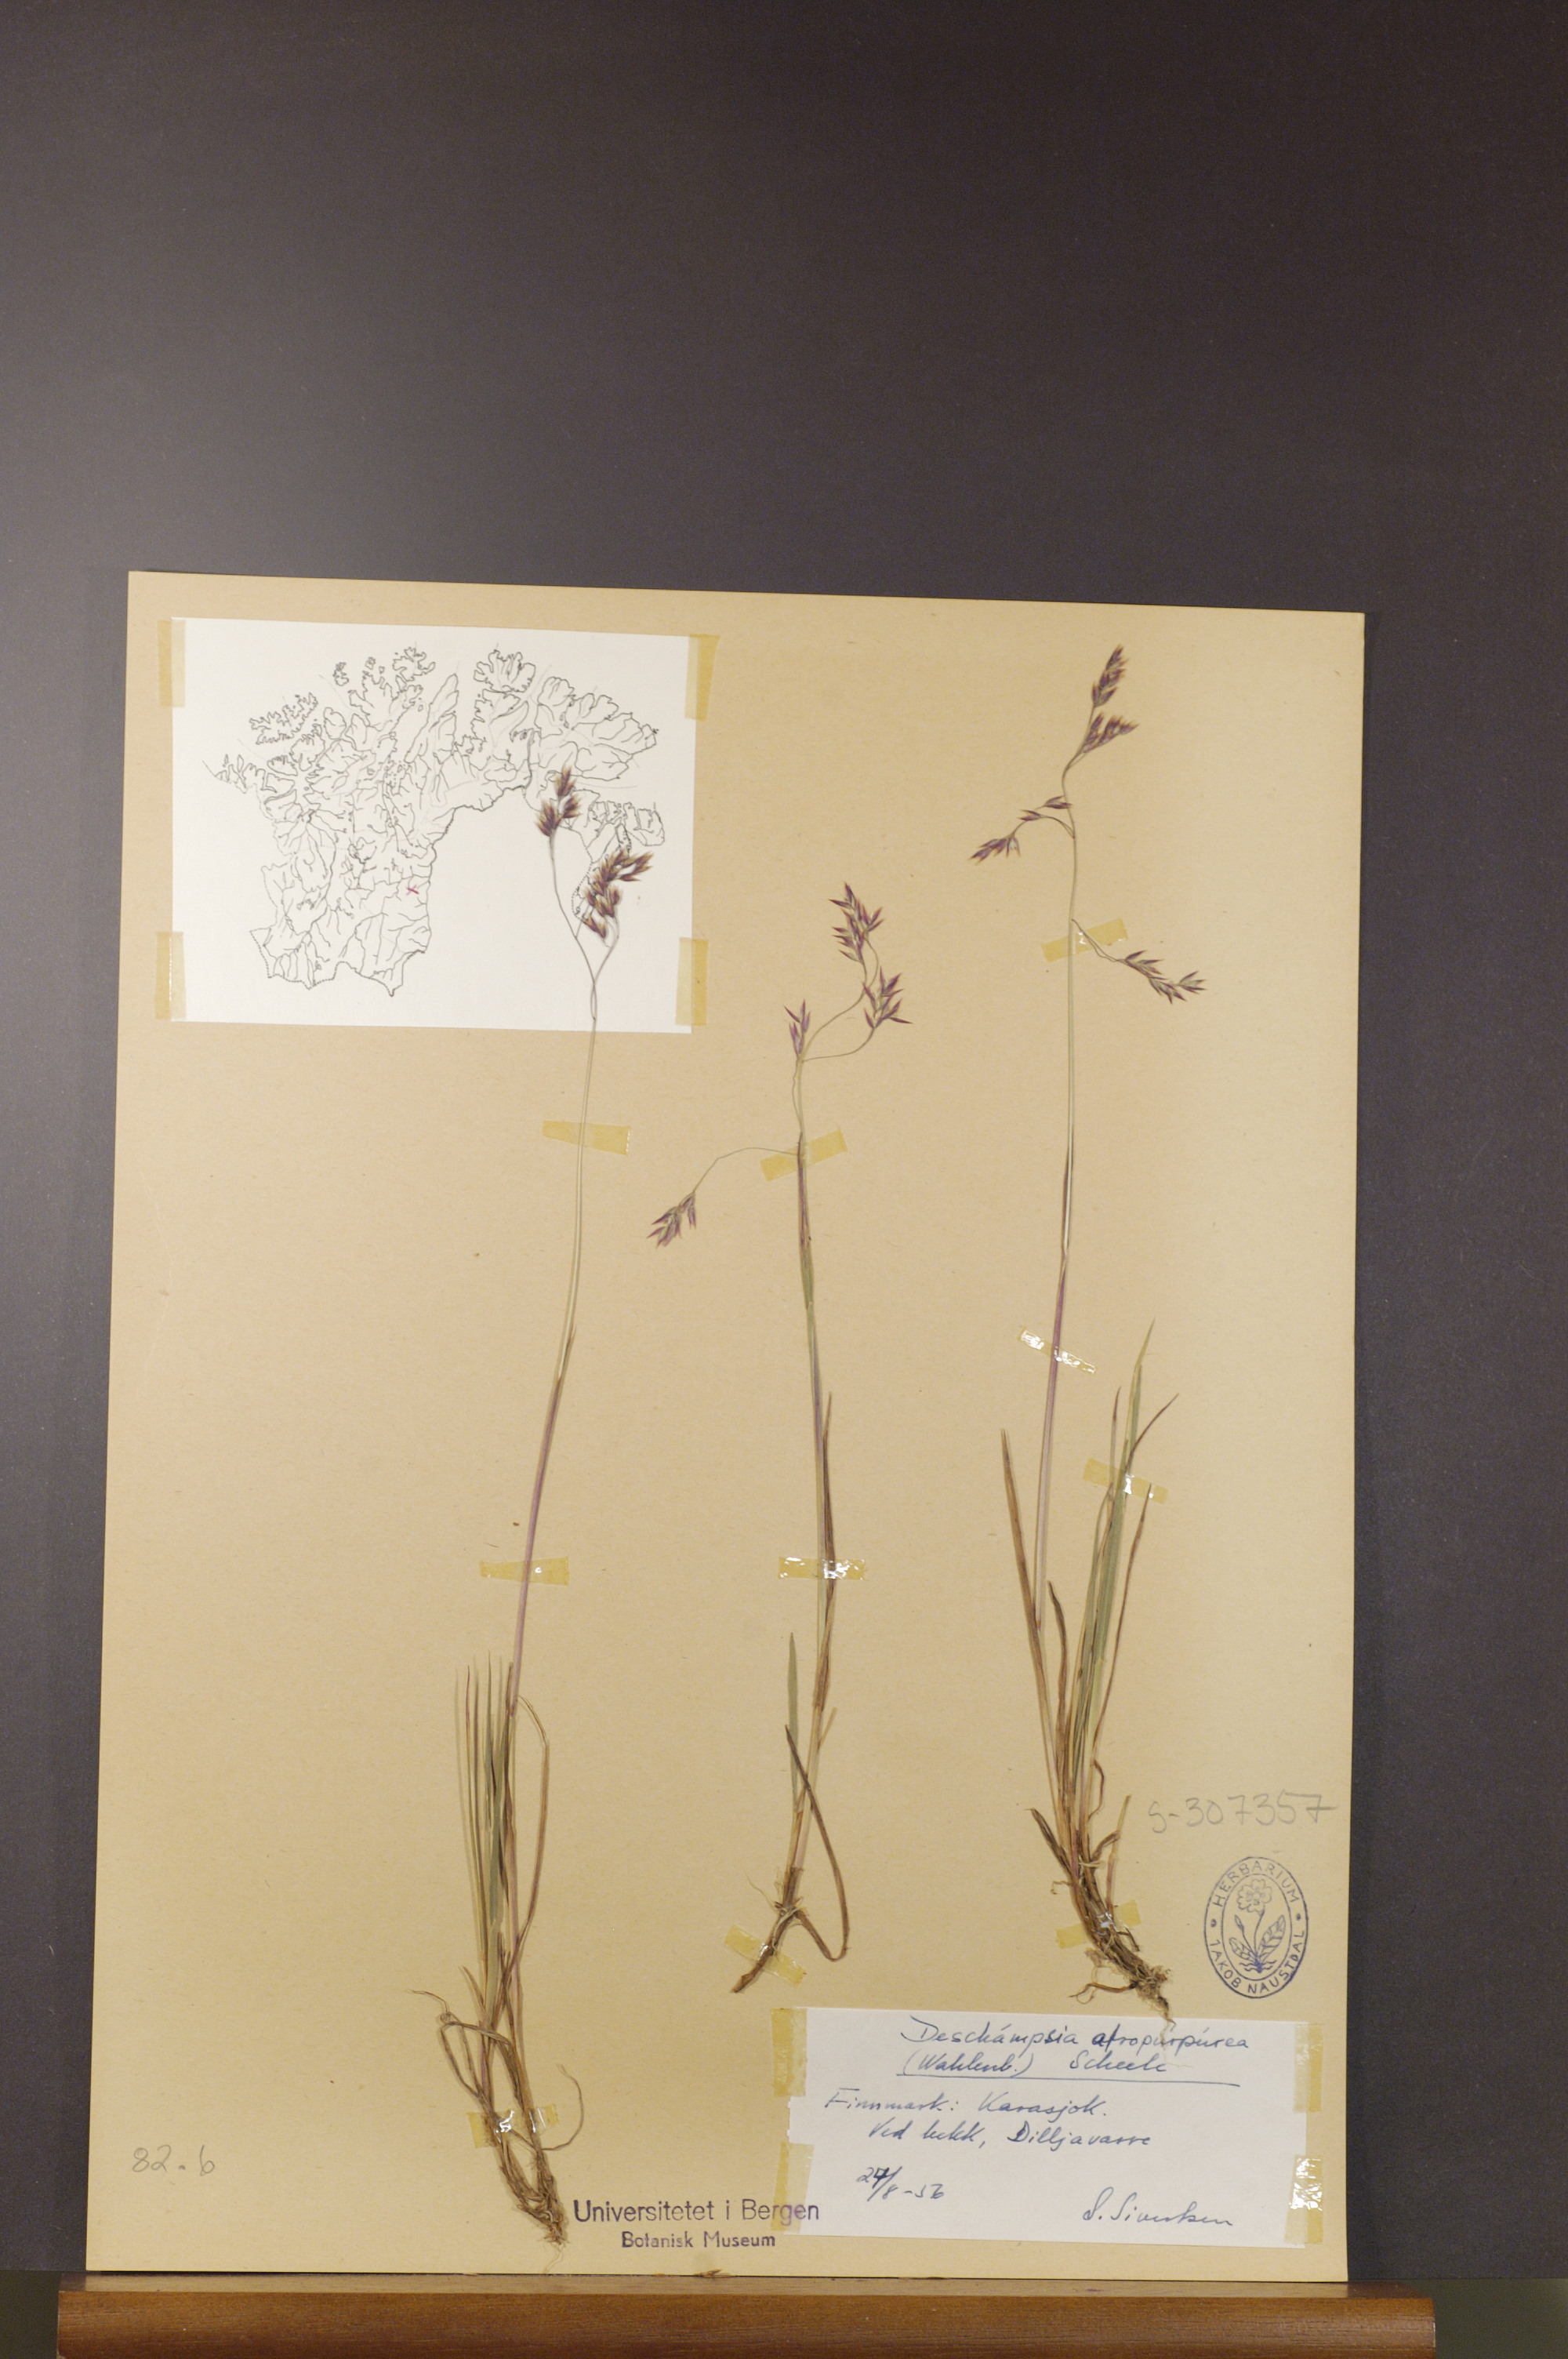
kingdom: Plantae
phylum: Tracheophyta
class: Liliopsida
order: Poales
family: Poaceae
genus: Vahlodea
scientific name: Vahlodea atropurpurea
